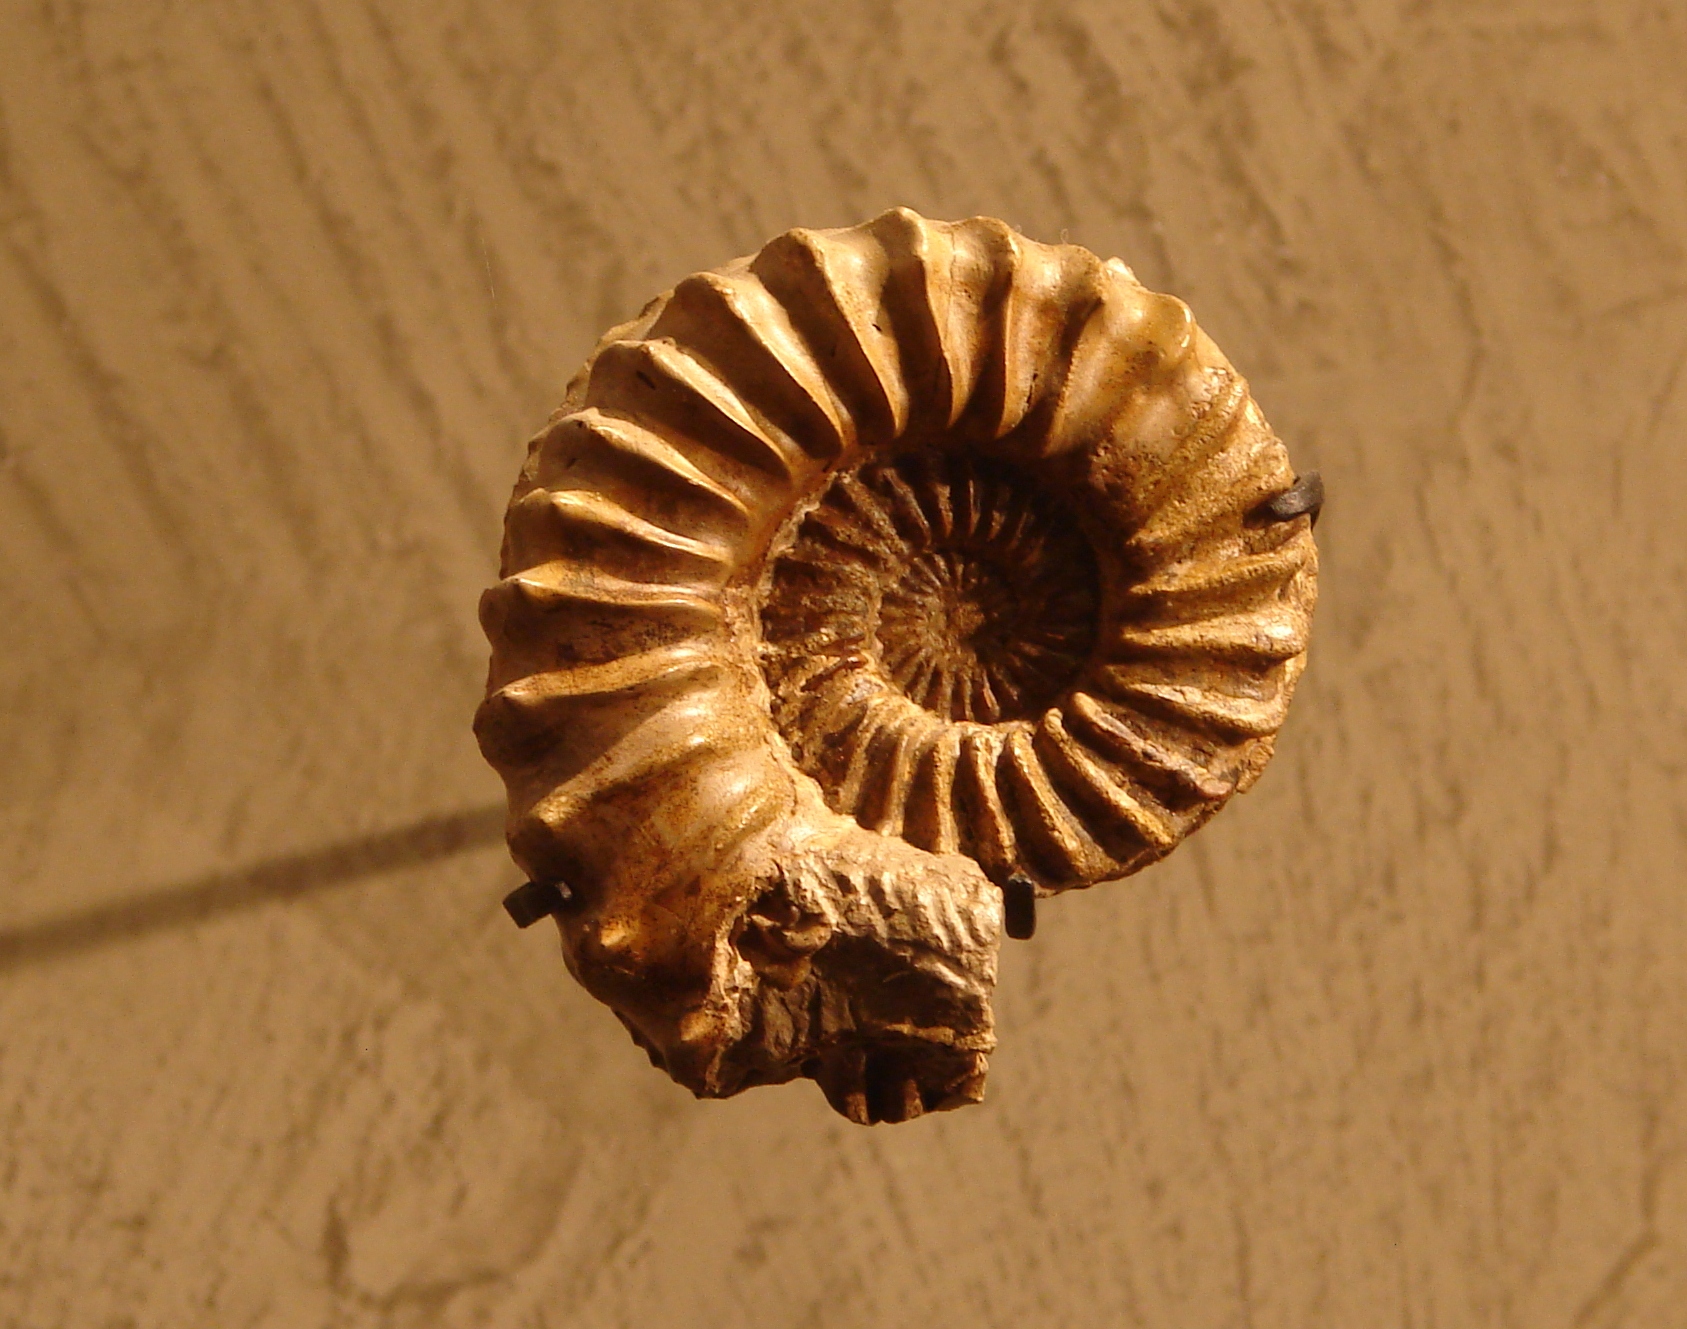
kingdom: Animalia
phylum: Mollusca
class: Cephalopoda
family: Amaltheidae
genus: Pleuroceras
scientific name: Pleuroceras spinatum
